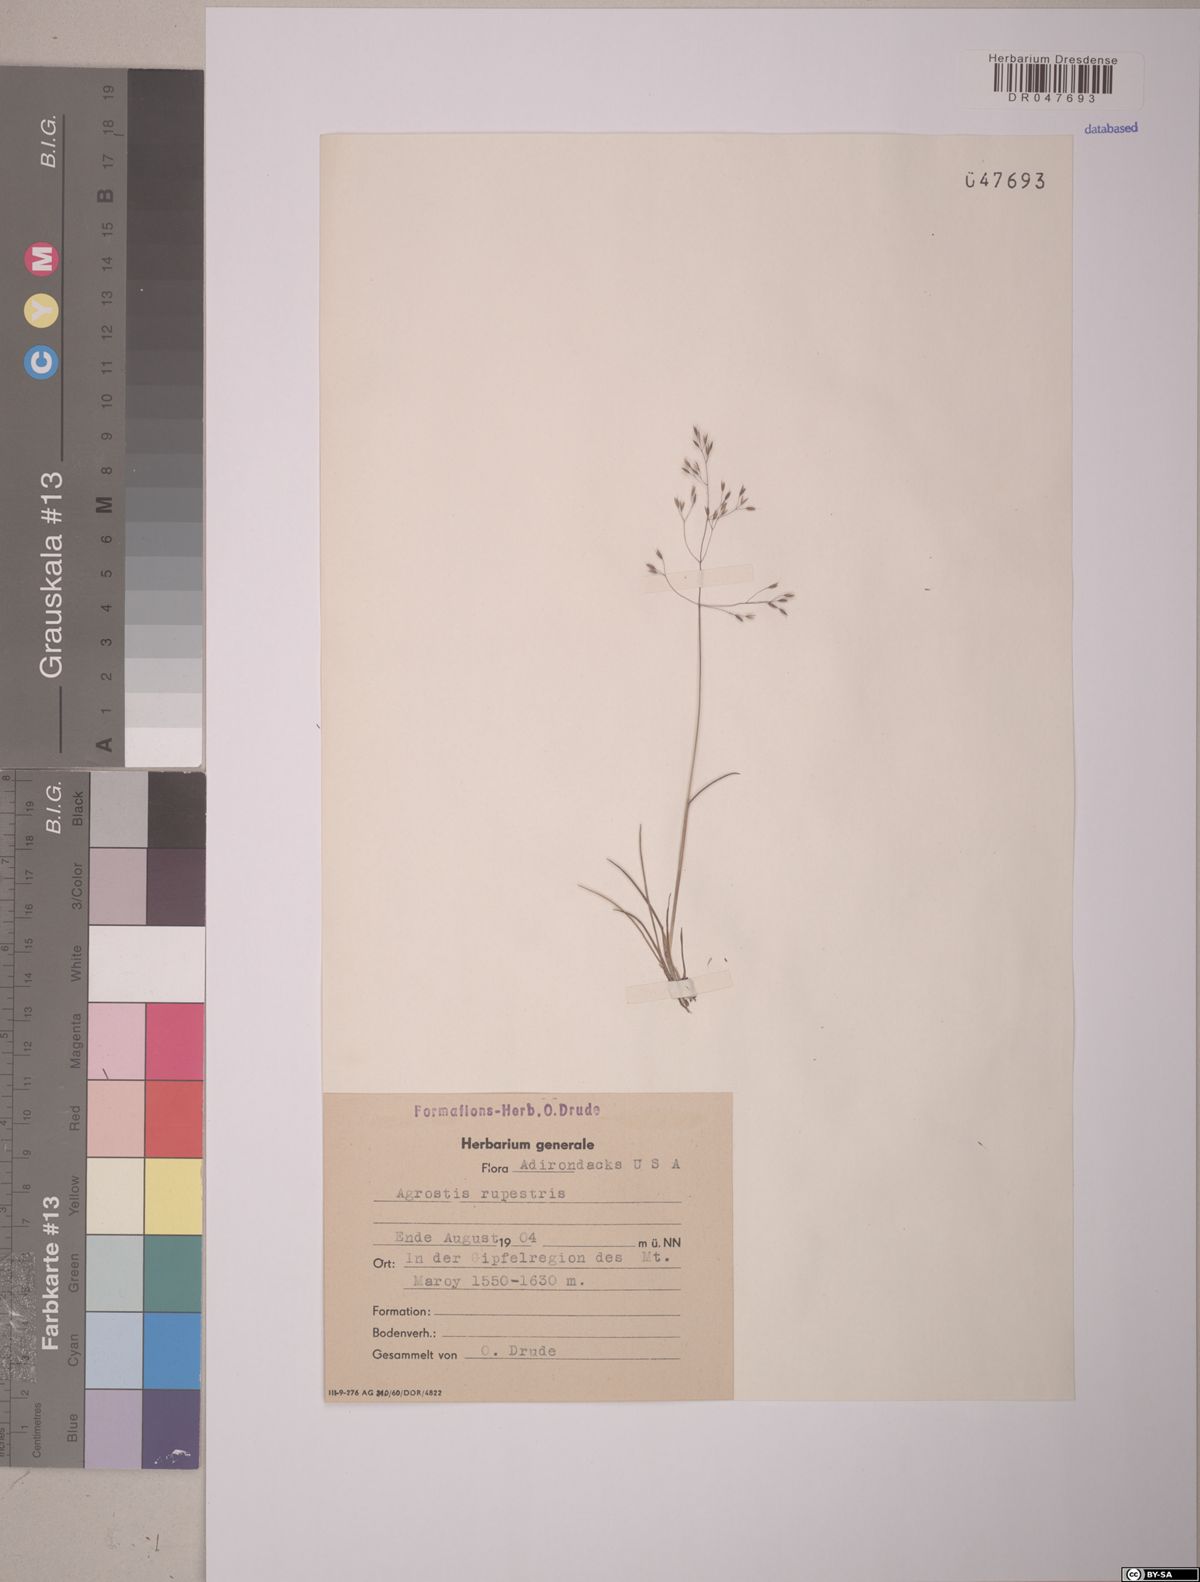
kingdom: Plantae
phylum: Tracheophyta
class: Liliopsida
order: Poales
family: Poaceae
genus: Agrostis
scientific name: Agrostis rupestris
